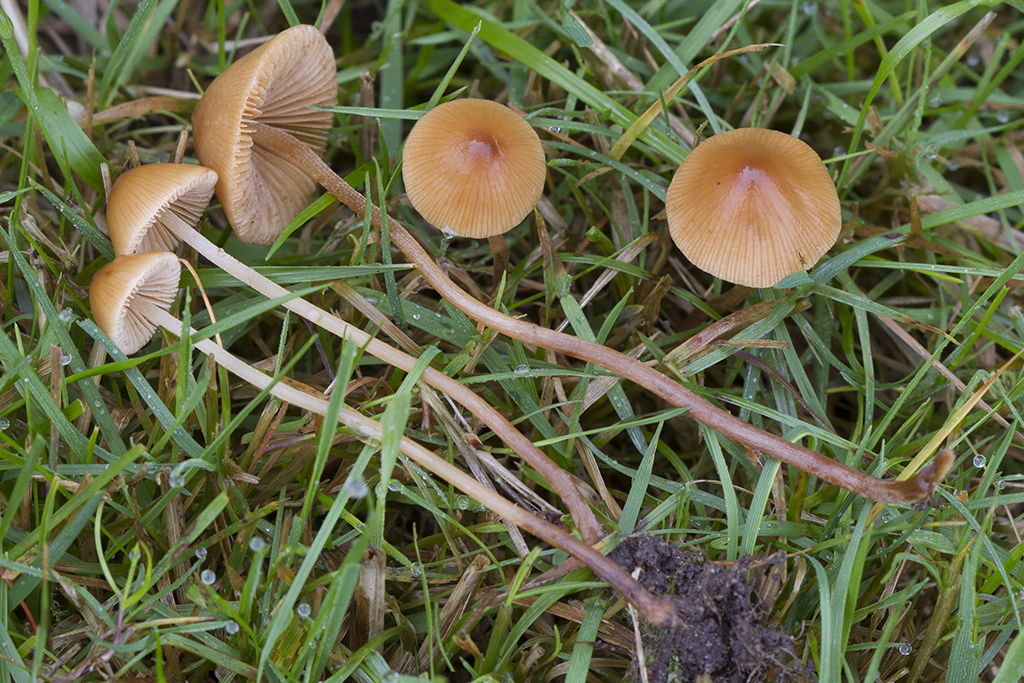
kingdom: Fungi
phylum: Basidiomycota
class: Agaricomycetes
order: Agaricales
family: Bolbitiaceae
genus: Conocybe
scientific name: Conocybe rickeniana
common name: kastaniebrun keglehat
